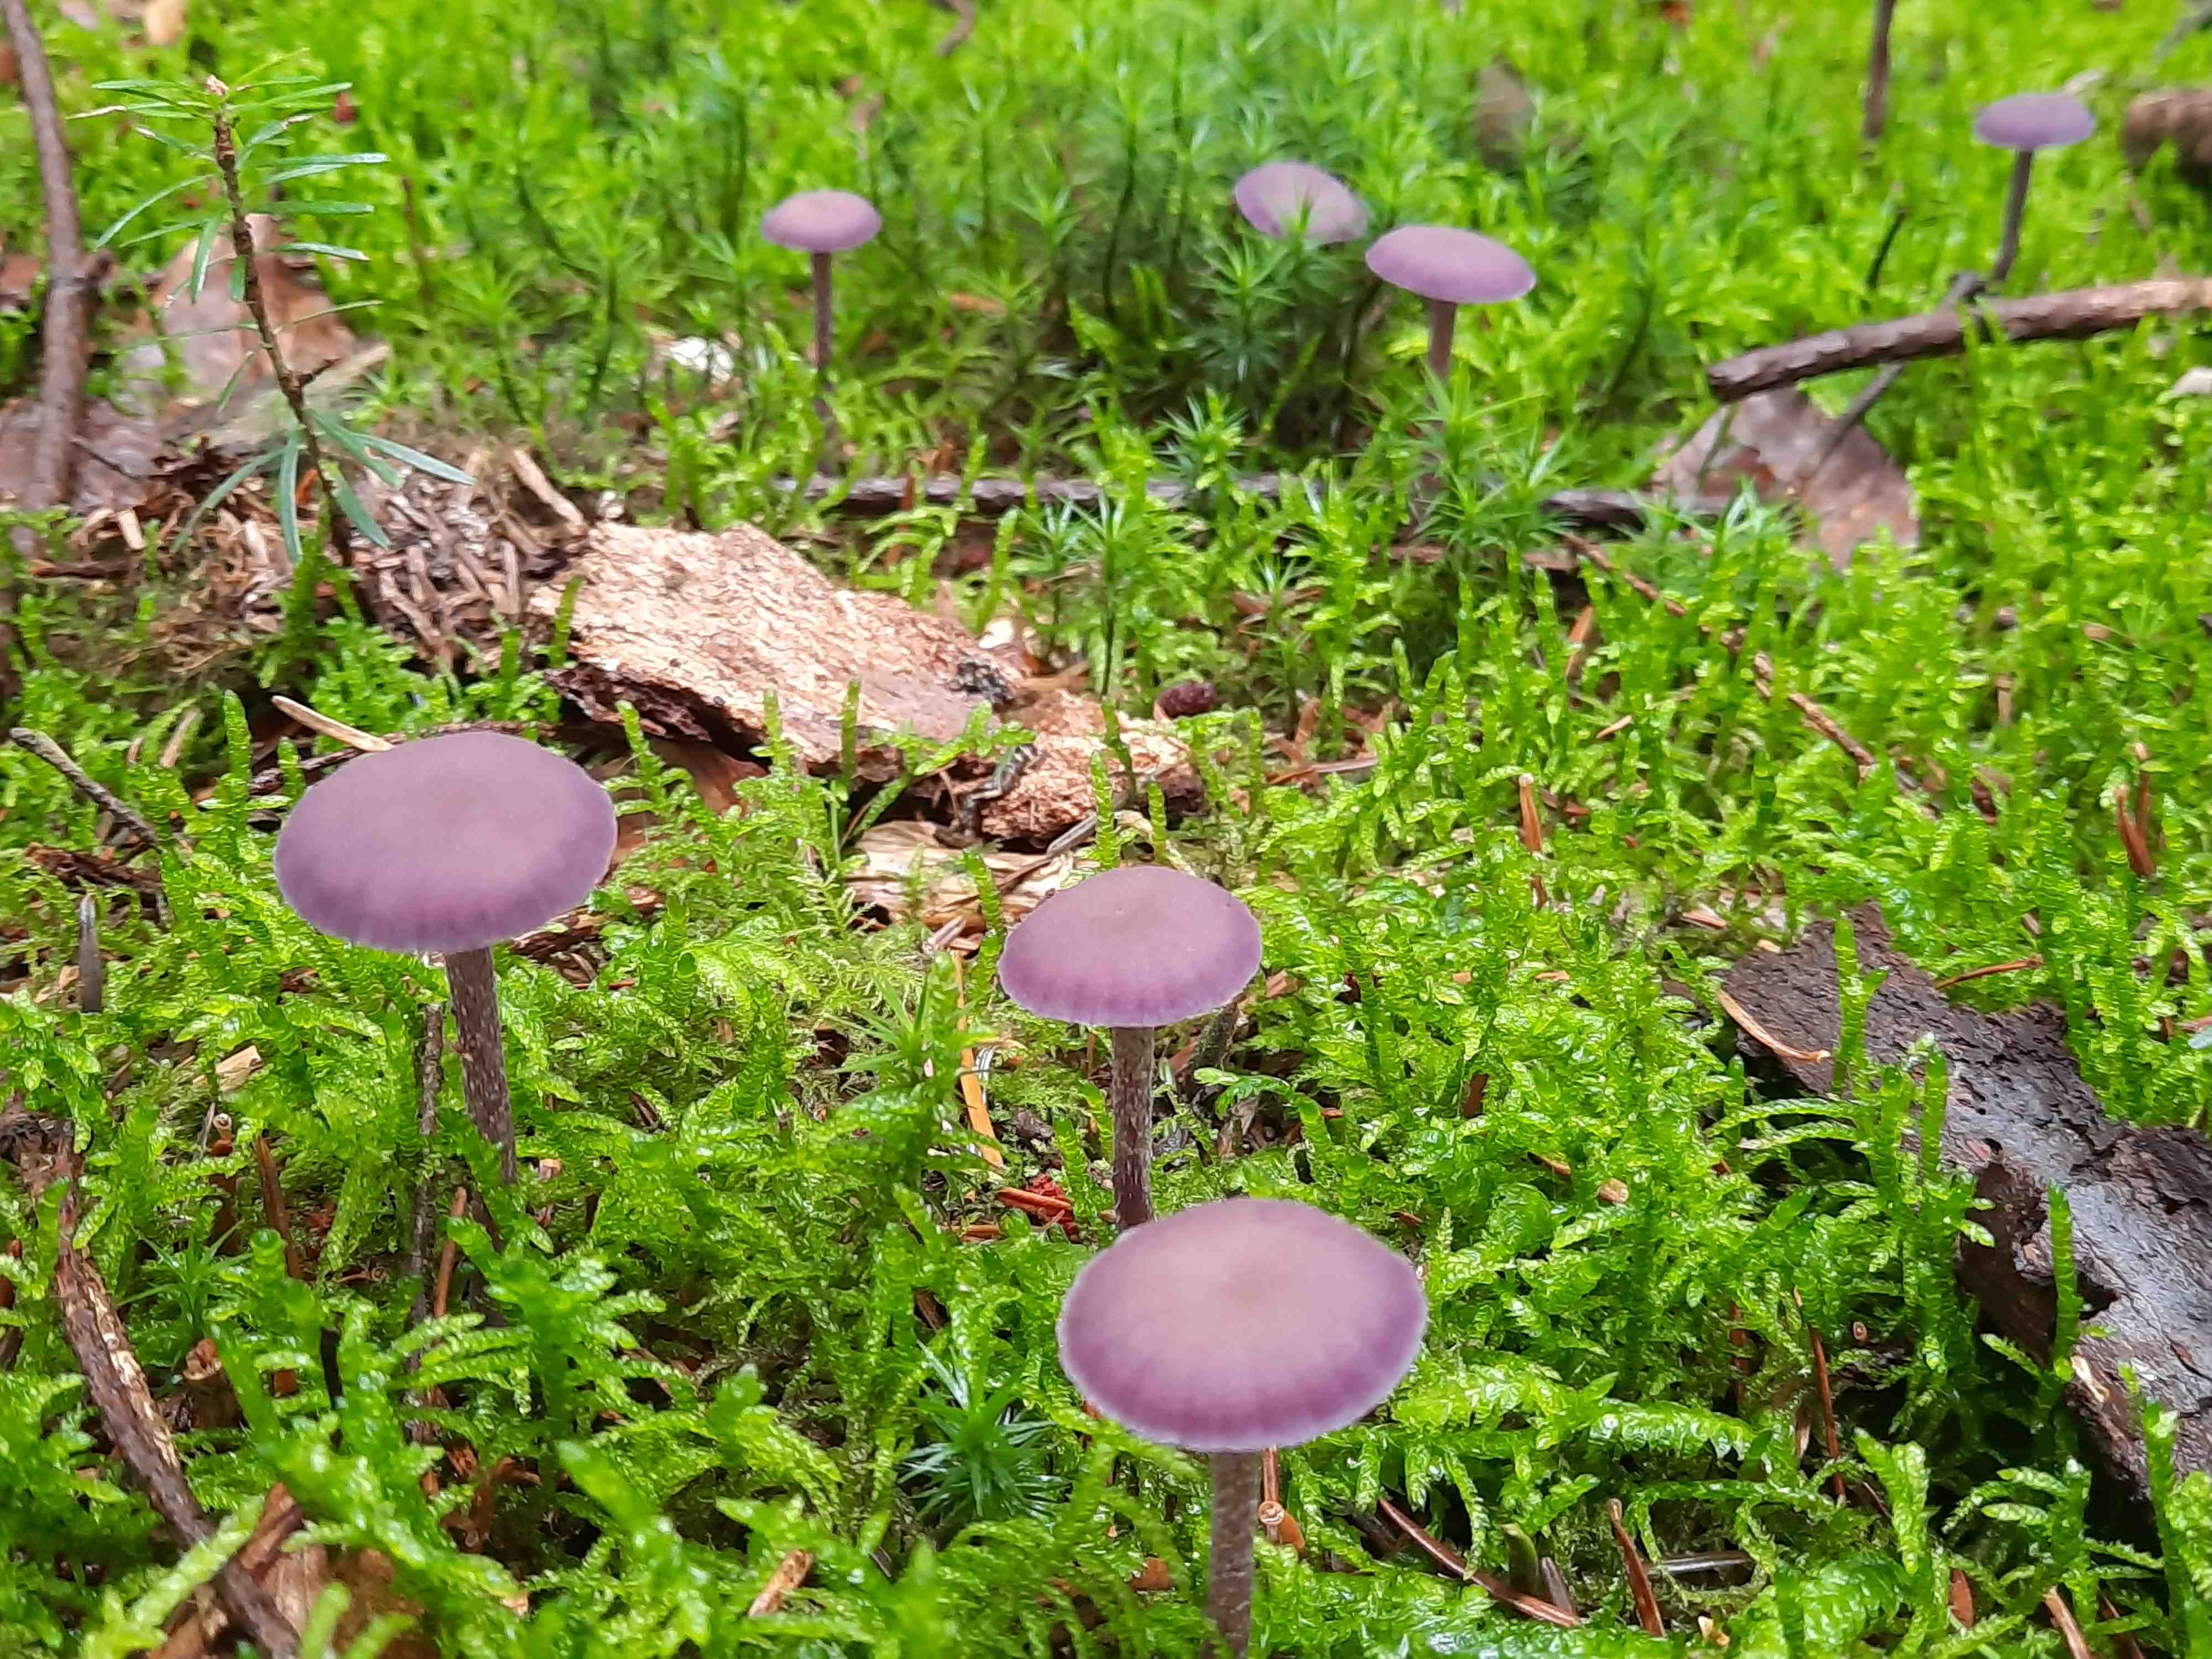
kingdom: Fungi
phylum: Basidiomycota
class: Agaricomycetes
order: Agaricales
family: Hydnangiaceae
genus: Laccaria
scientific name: Laccaria amethystina
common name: violet ametysthat
